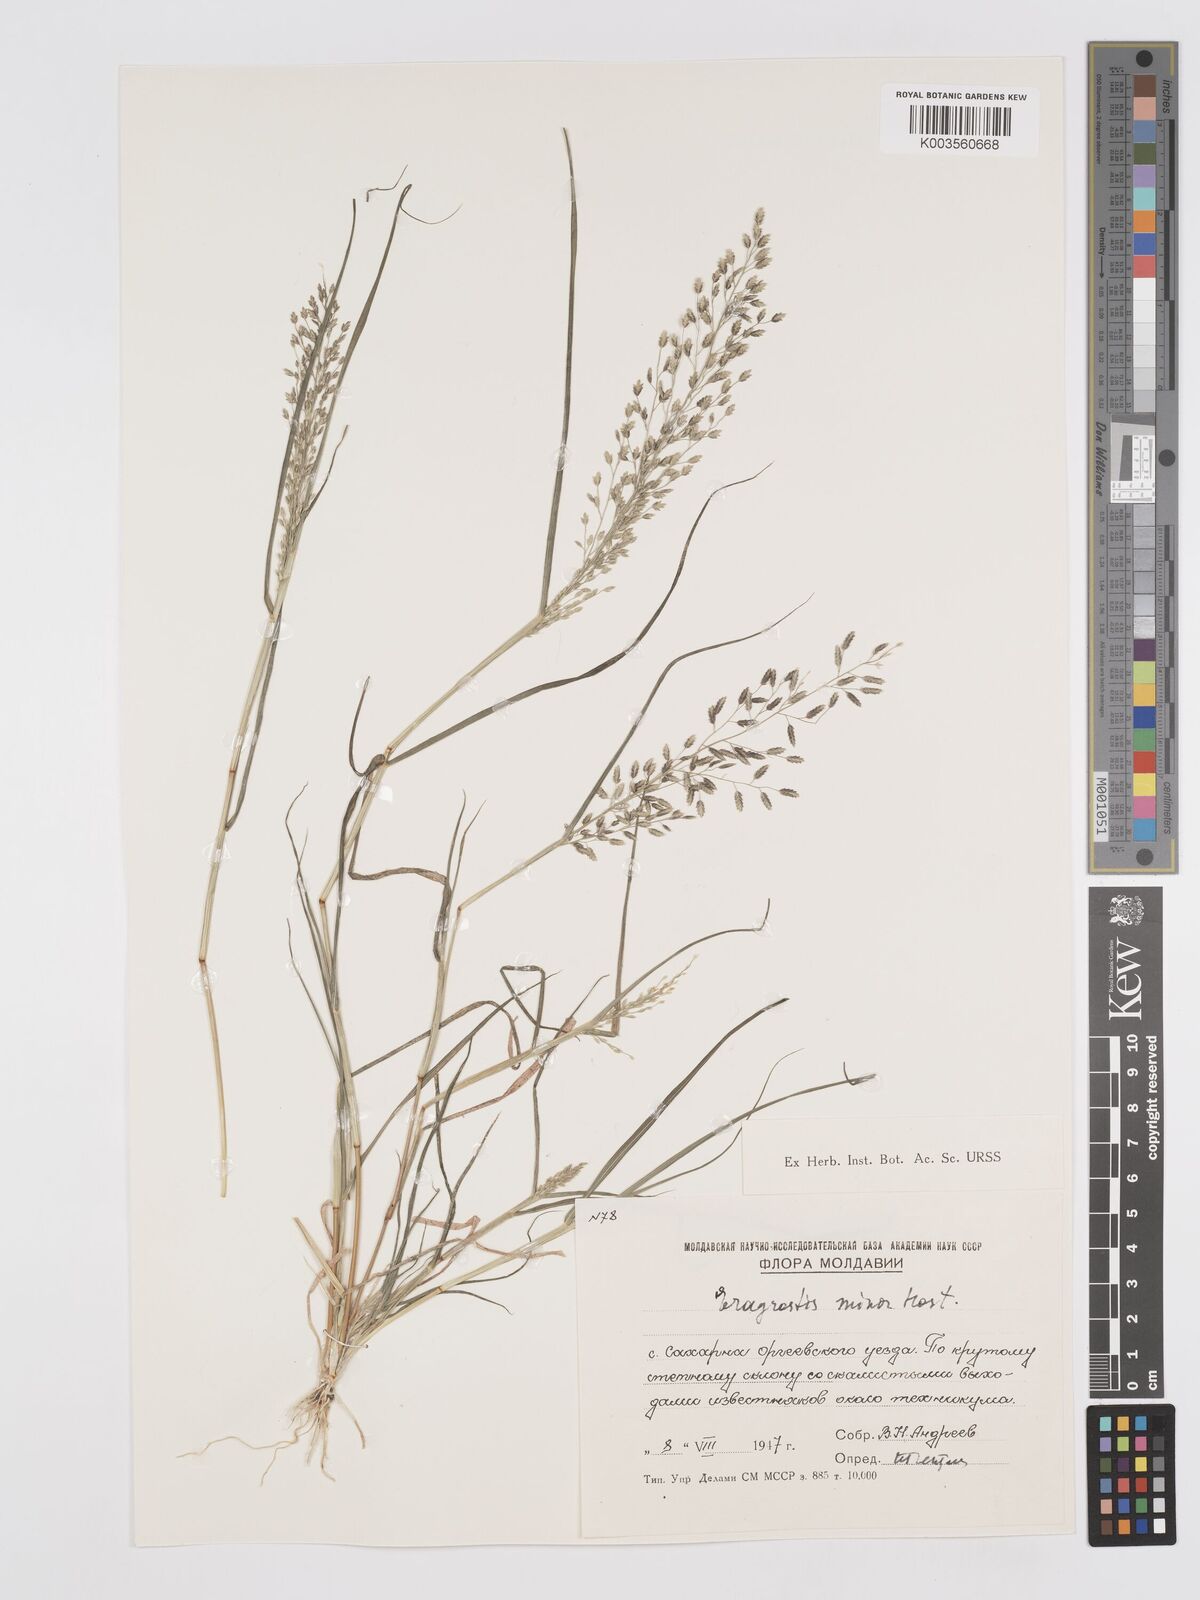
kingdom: Plantae
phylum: Tracheophyta
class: Liliopsida
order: Poales
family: Poaceae
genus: Eragrostis
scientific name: Eragrostis minor
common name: Small love-grass
